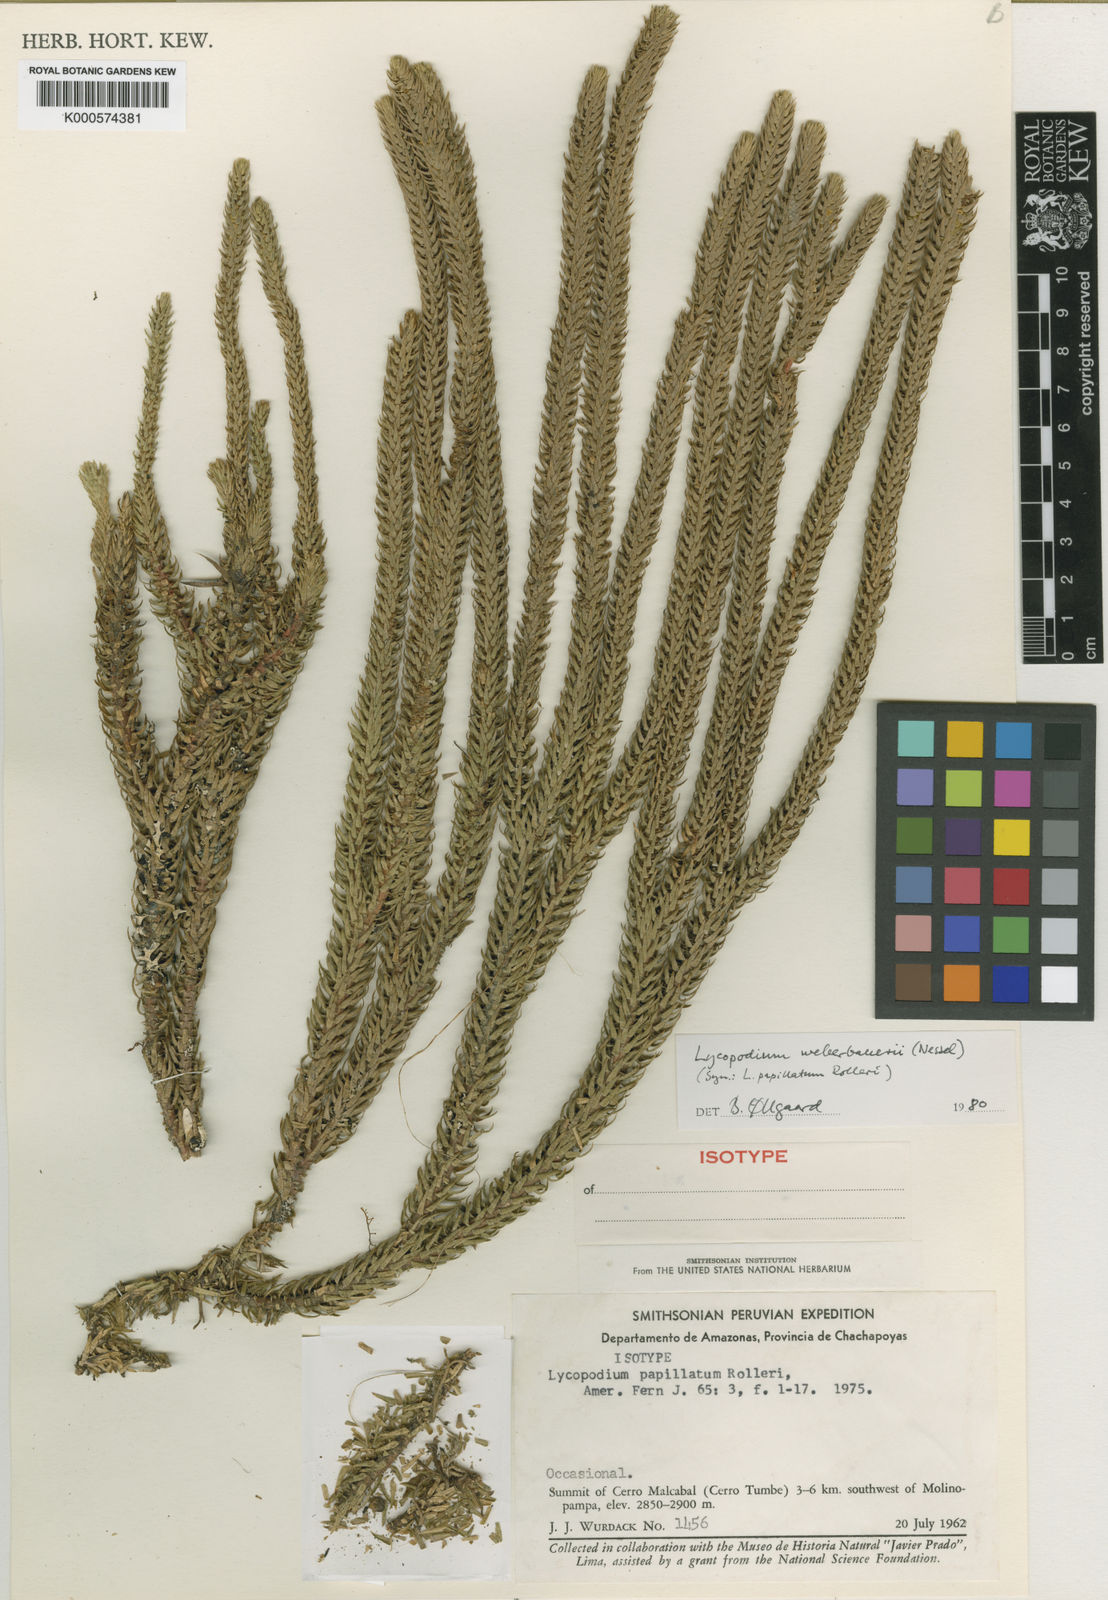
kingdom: Plantae
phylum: Tracheophyta
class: Lycopodiopsida
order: Lycopodiales
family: Lycopodiaceae
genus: Phlegmariurus
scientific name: Phlegmariurus weberbaueri
